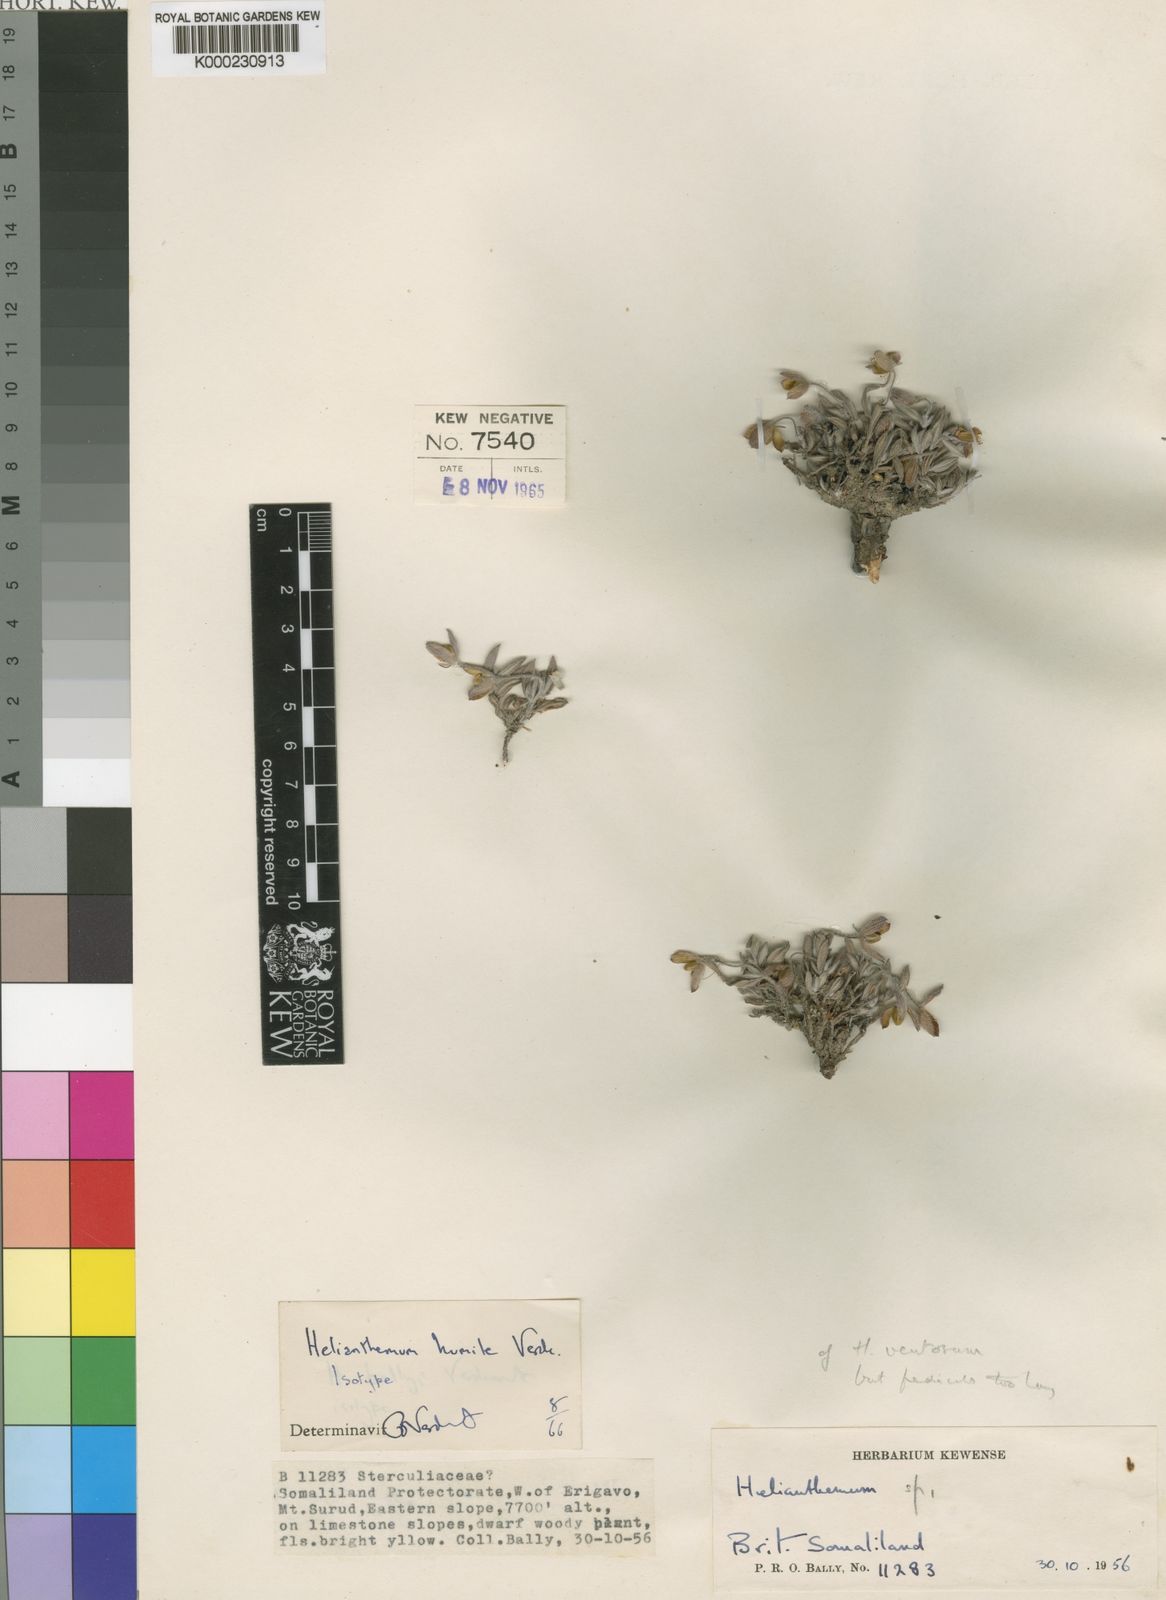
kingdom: Plantae
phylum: Tracheophyta
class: Magnoliopsida
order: Malvales
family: Cistaceae
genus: Helianthemum
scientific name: Helianthemum humile
